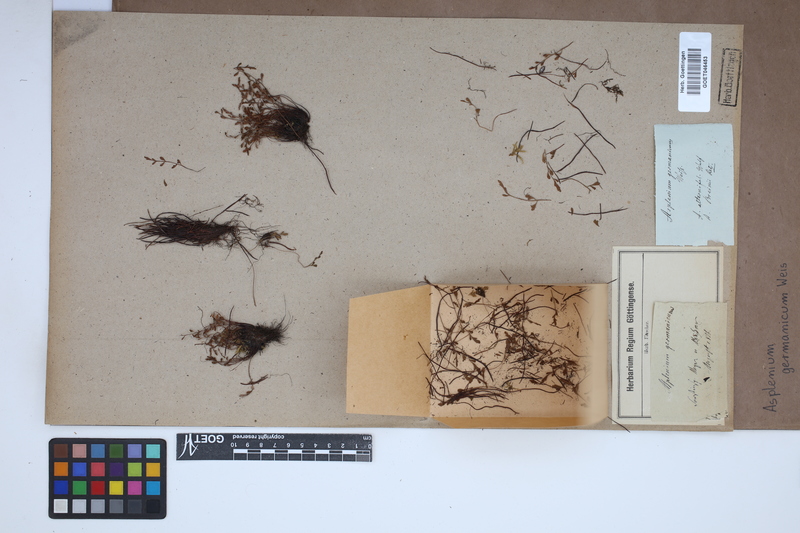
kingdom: Plantae
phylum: Tracheophyta
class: Polypodiopsida
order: Polypodiales
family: Aspleniaceae
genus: Asplenium
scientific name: Asplenium
